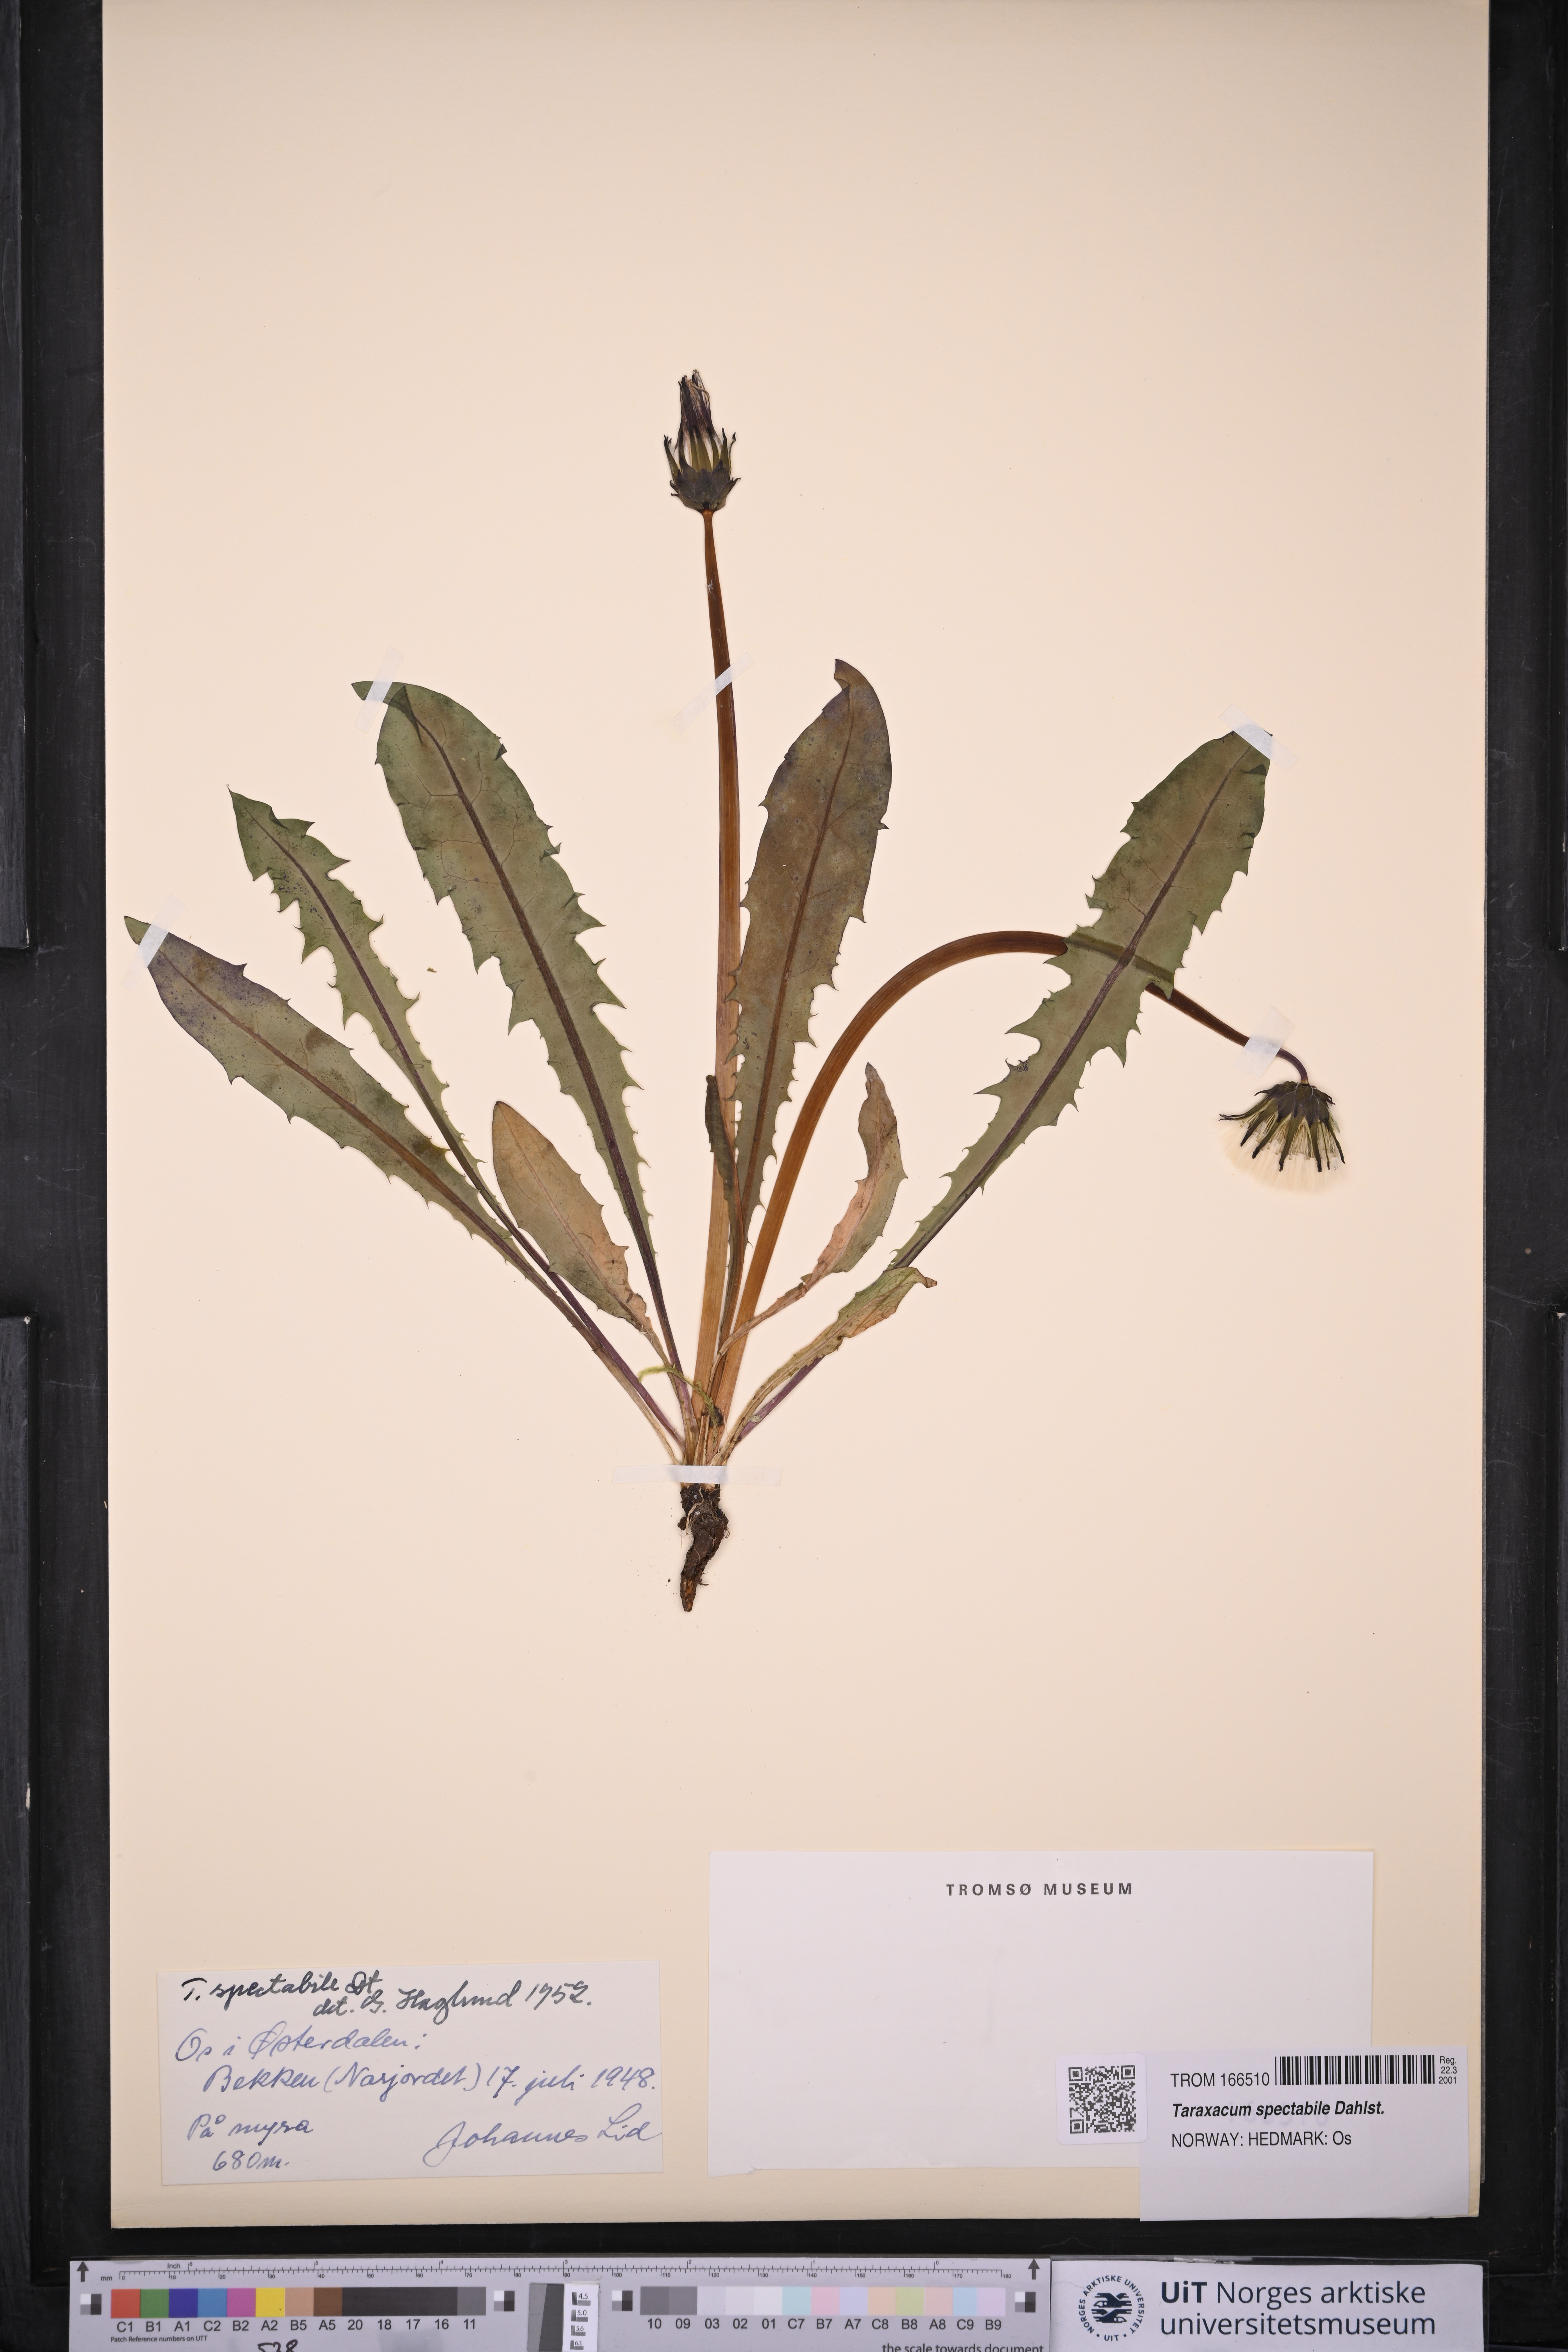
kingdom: Plantae
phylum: Tracheophyta
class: Magnoliopsida
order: Asterales
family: Asteraceae
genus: Taraxacum
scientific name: Taraxacum spectabile
